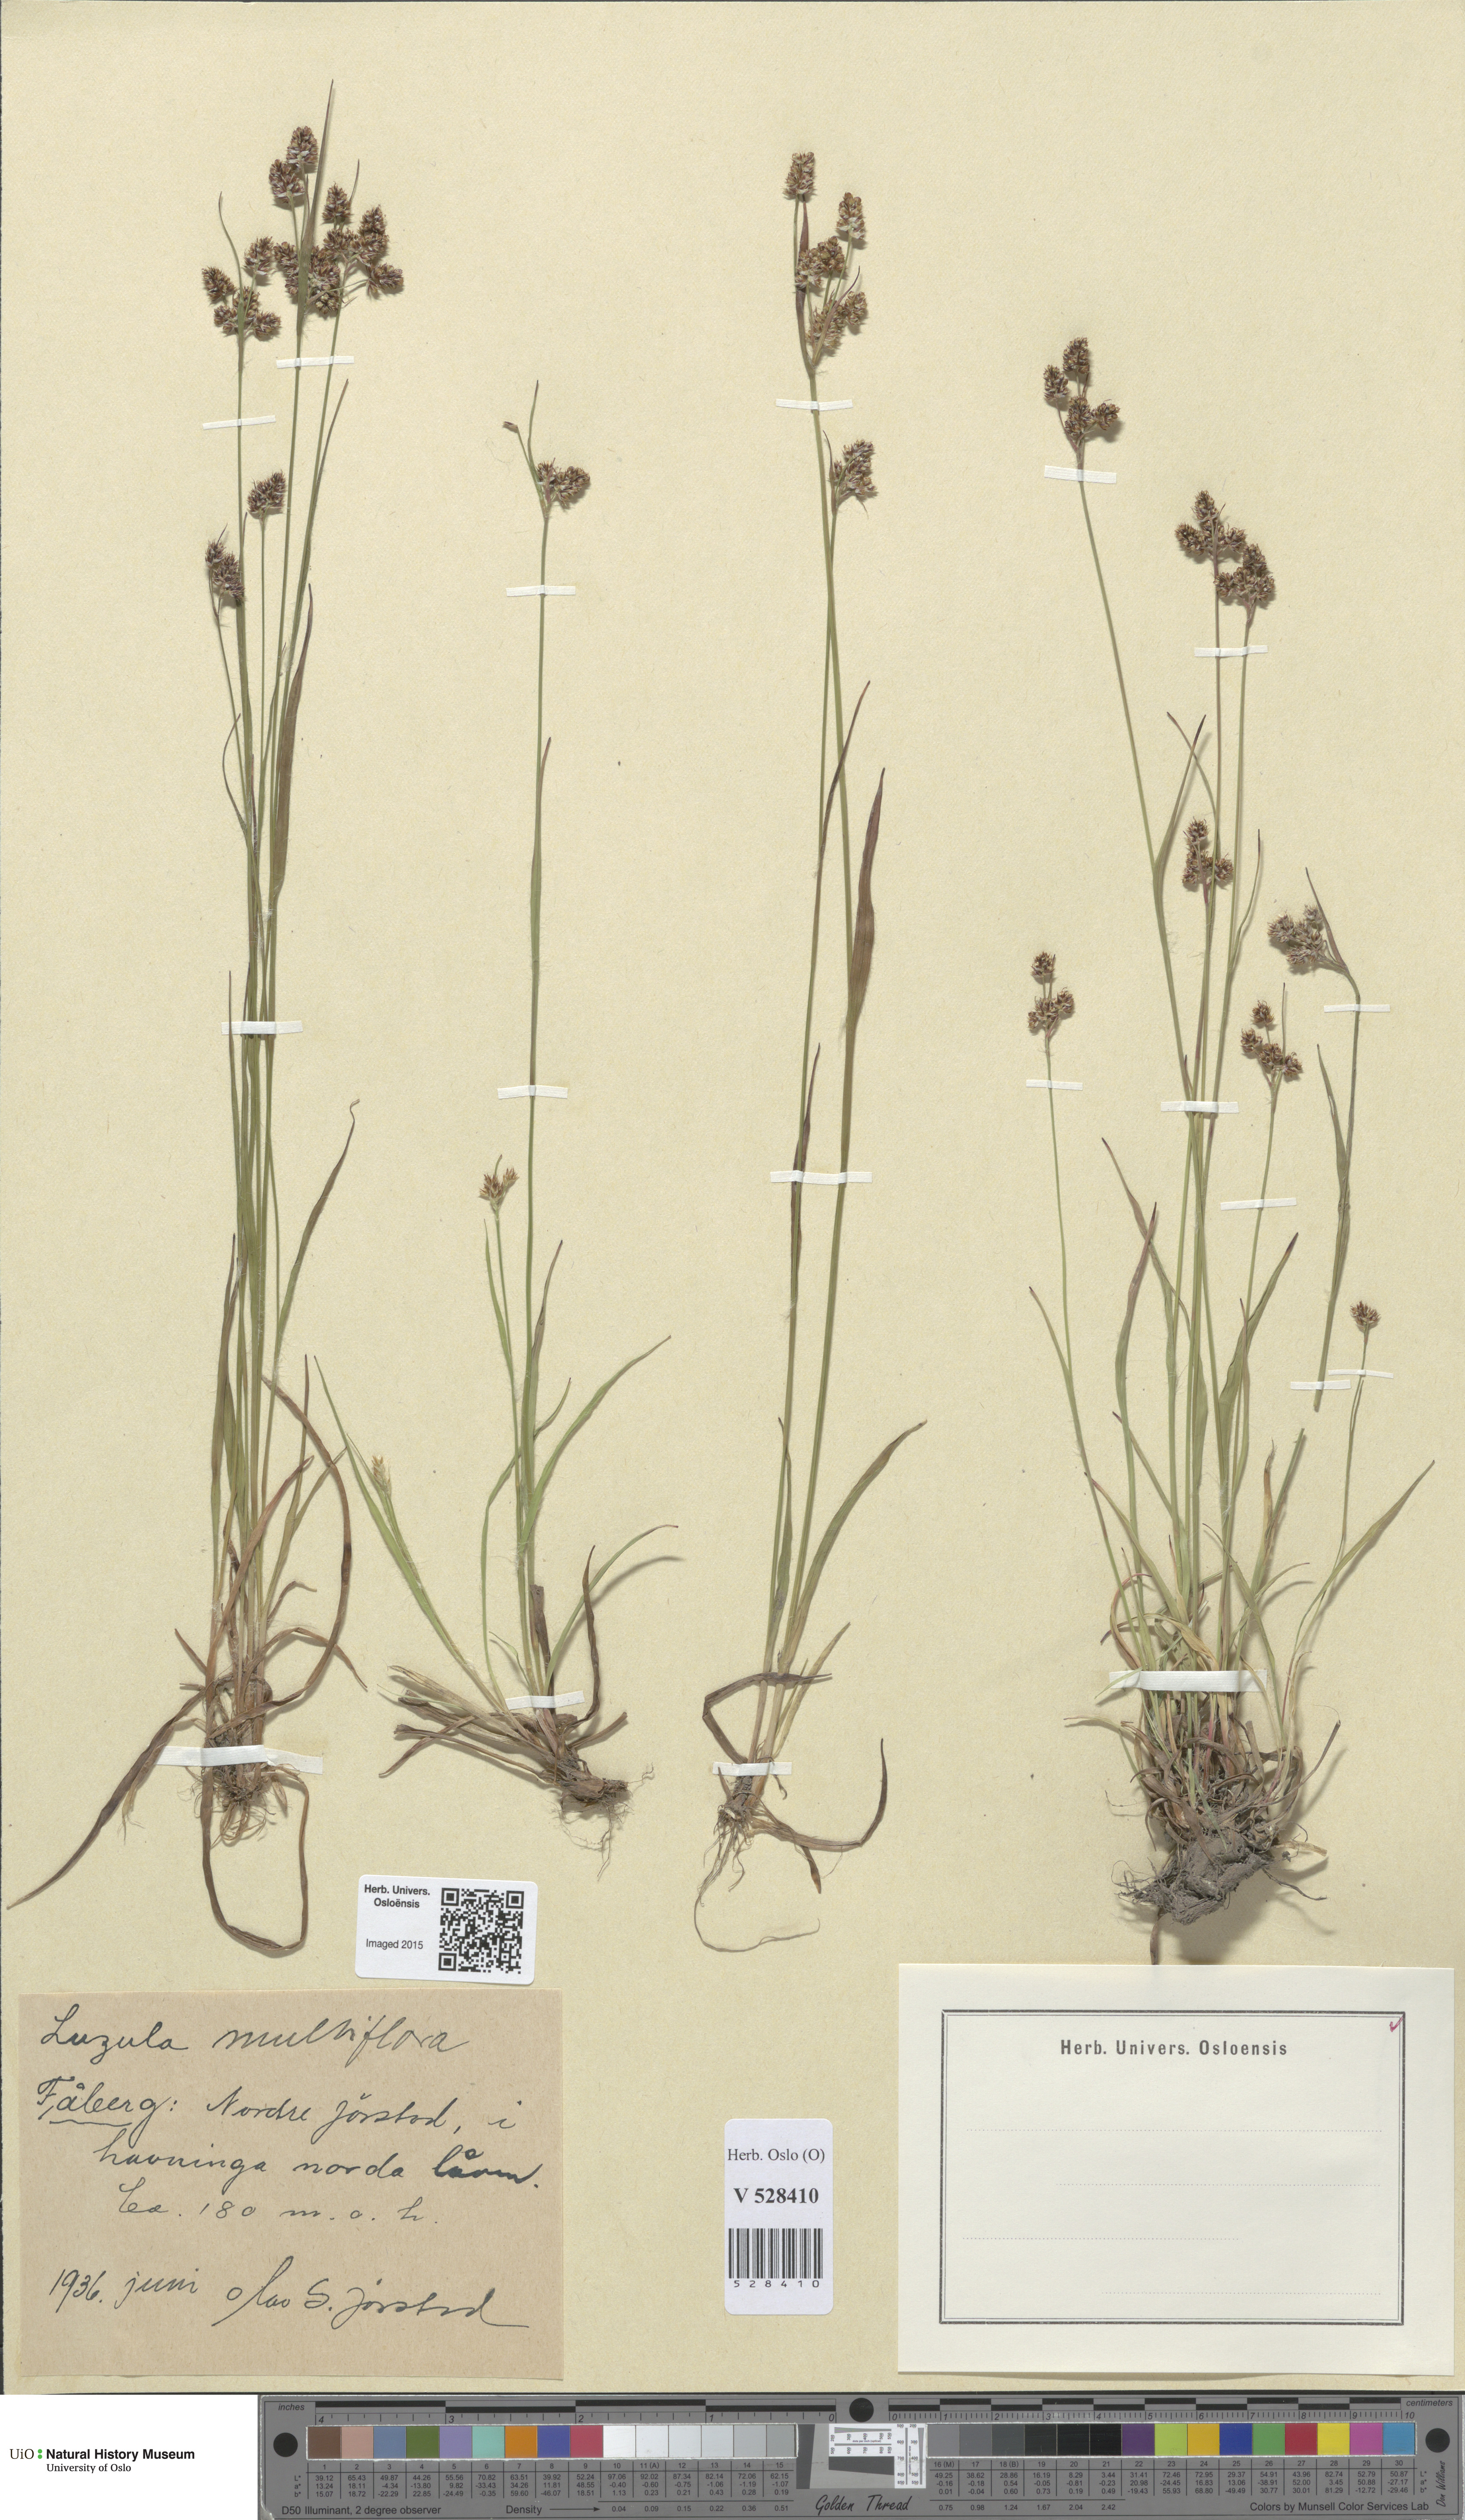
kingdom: Plantae
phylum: Tracheophyta
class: Liliopsida
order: Poales
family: Juncaceae
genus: Luzula
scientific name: Luzula multiflora
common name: Heath wood-rush
